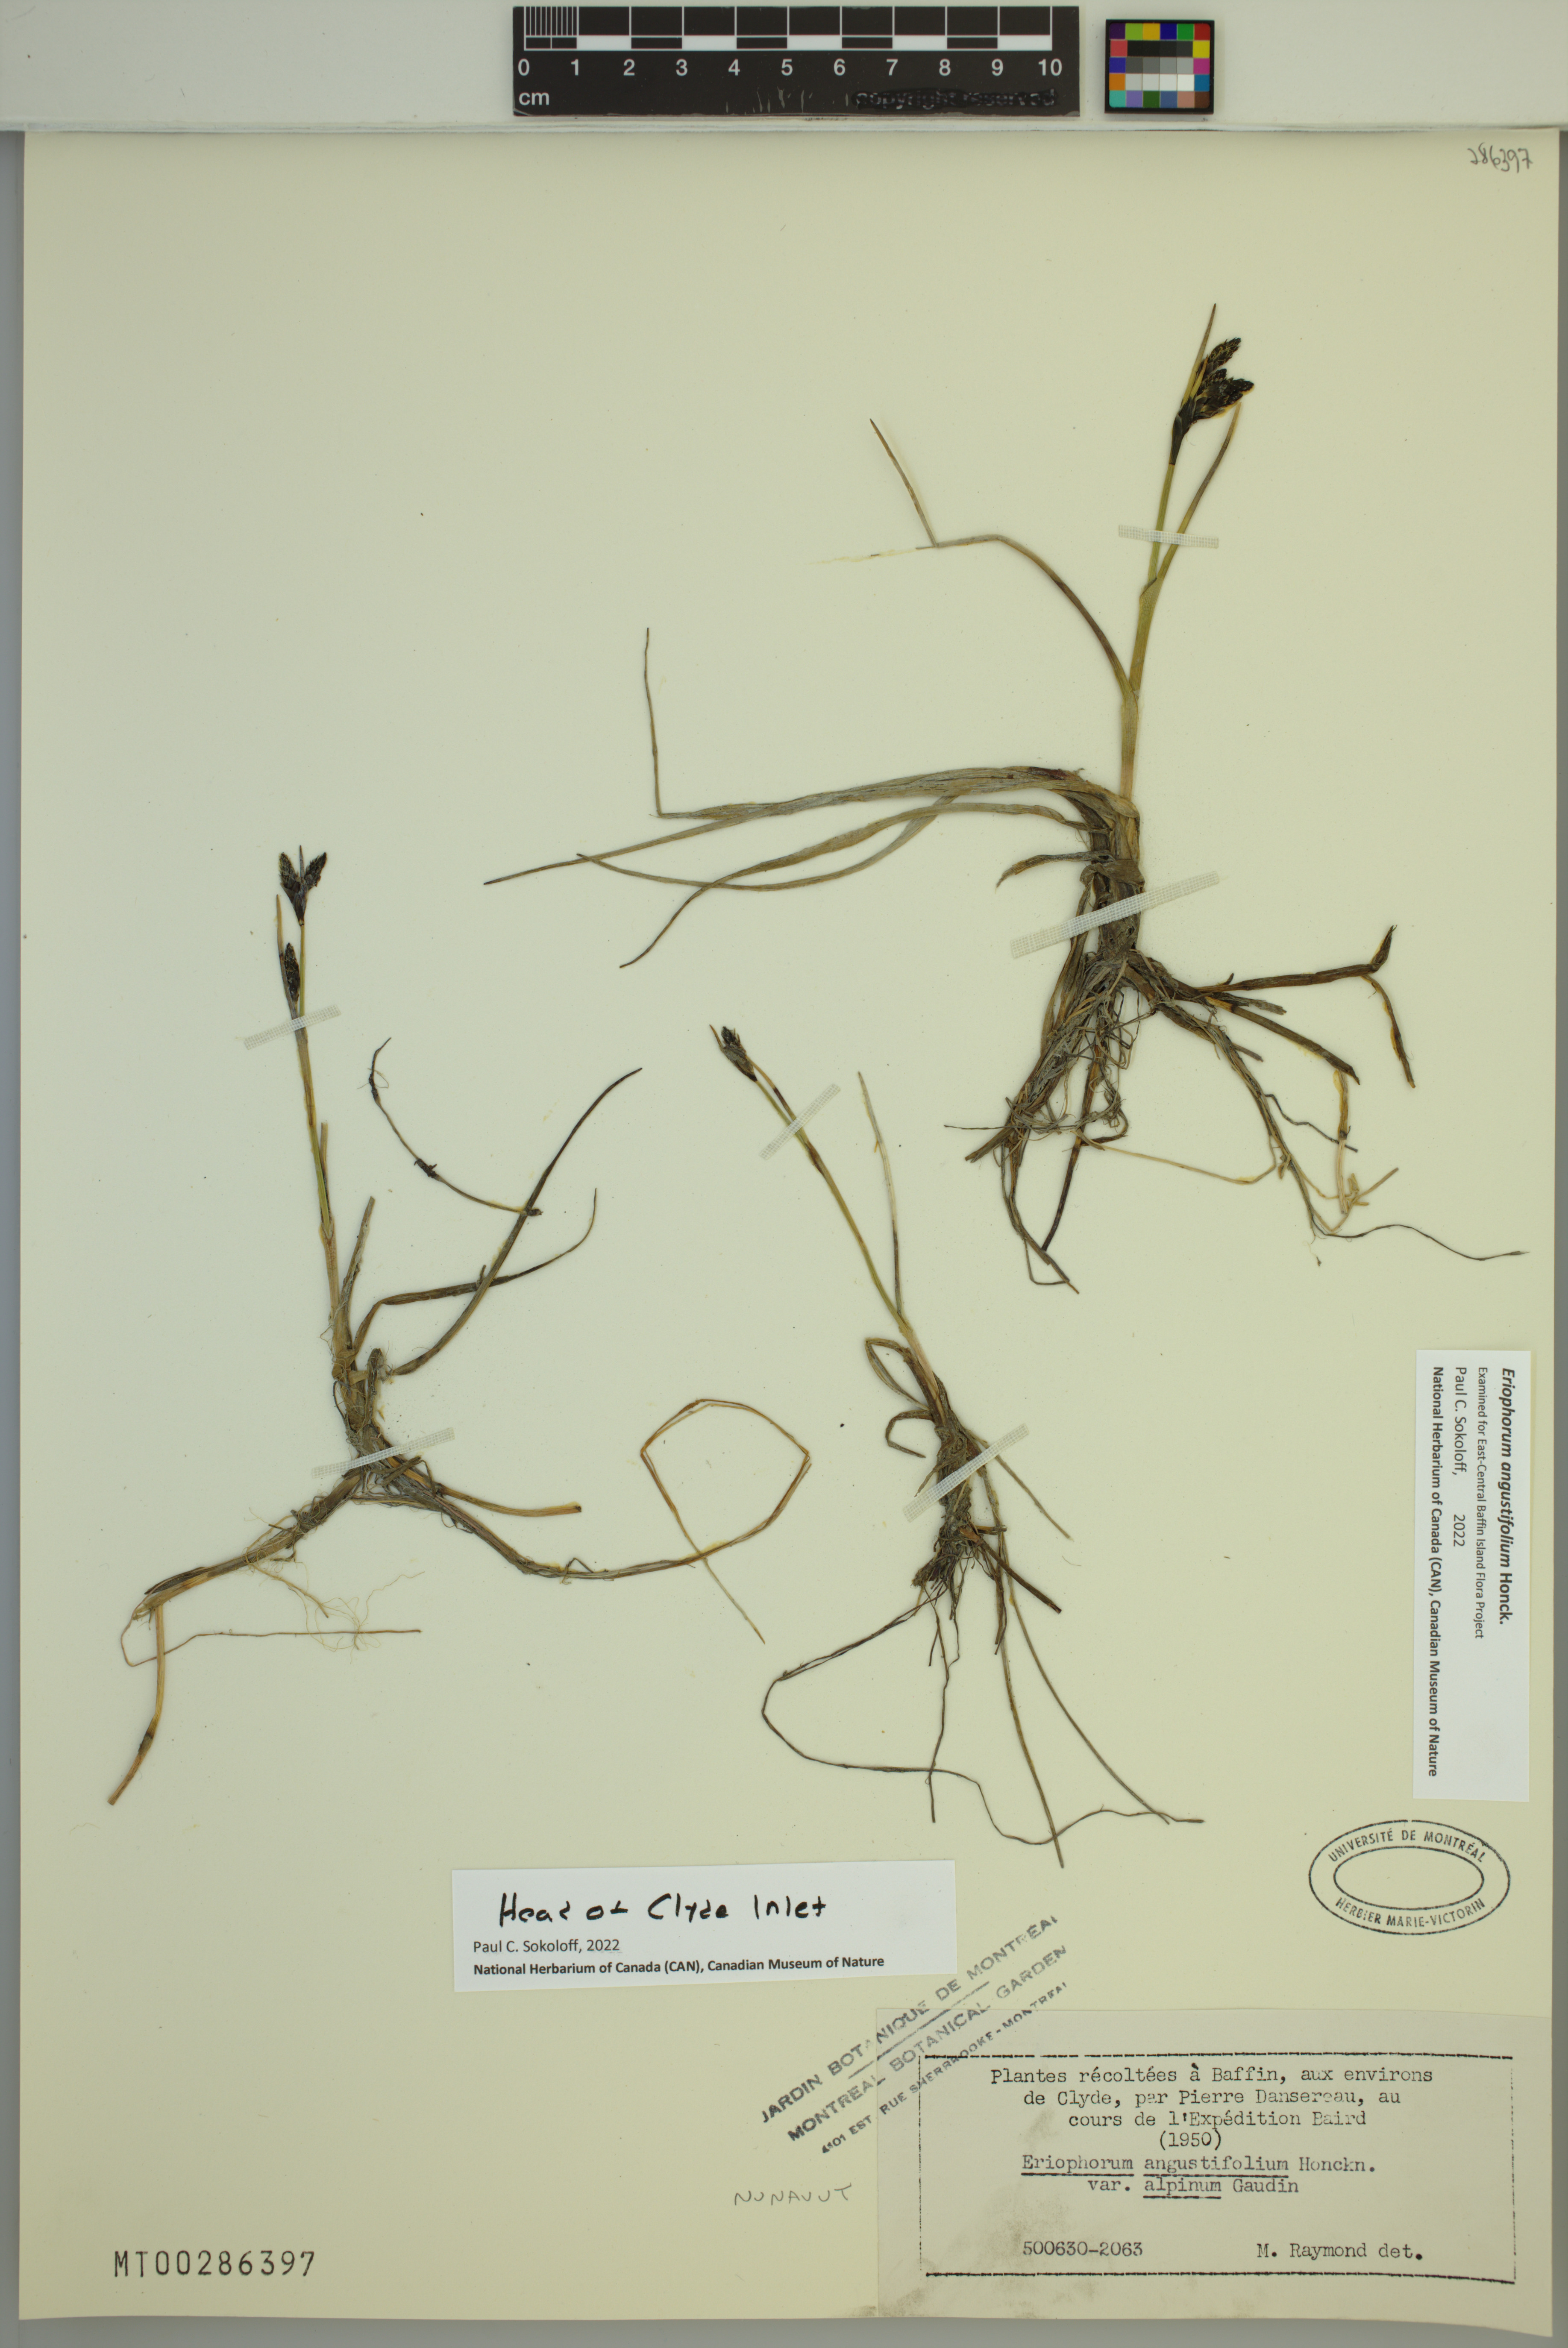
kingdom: Plantae
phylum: Tracheophyta
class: Liliopsida
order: Poales
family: Cyperaceae
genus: Eriophorum
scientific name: Eriophorum angustifolium
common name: Common cottongrass
